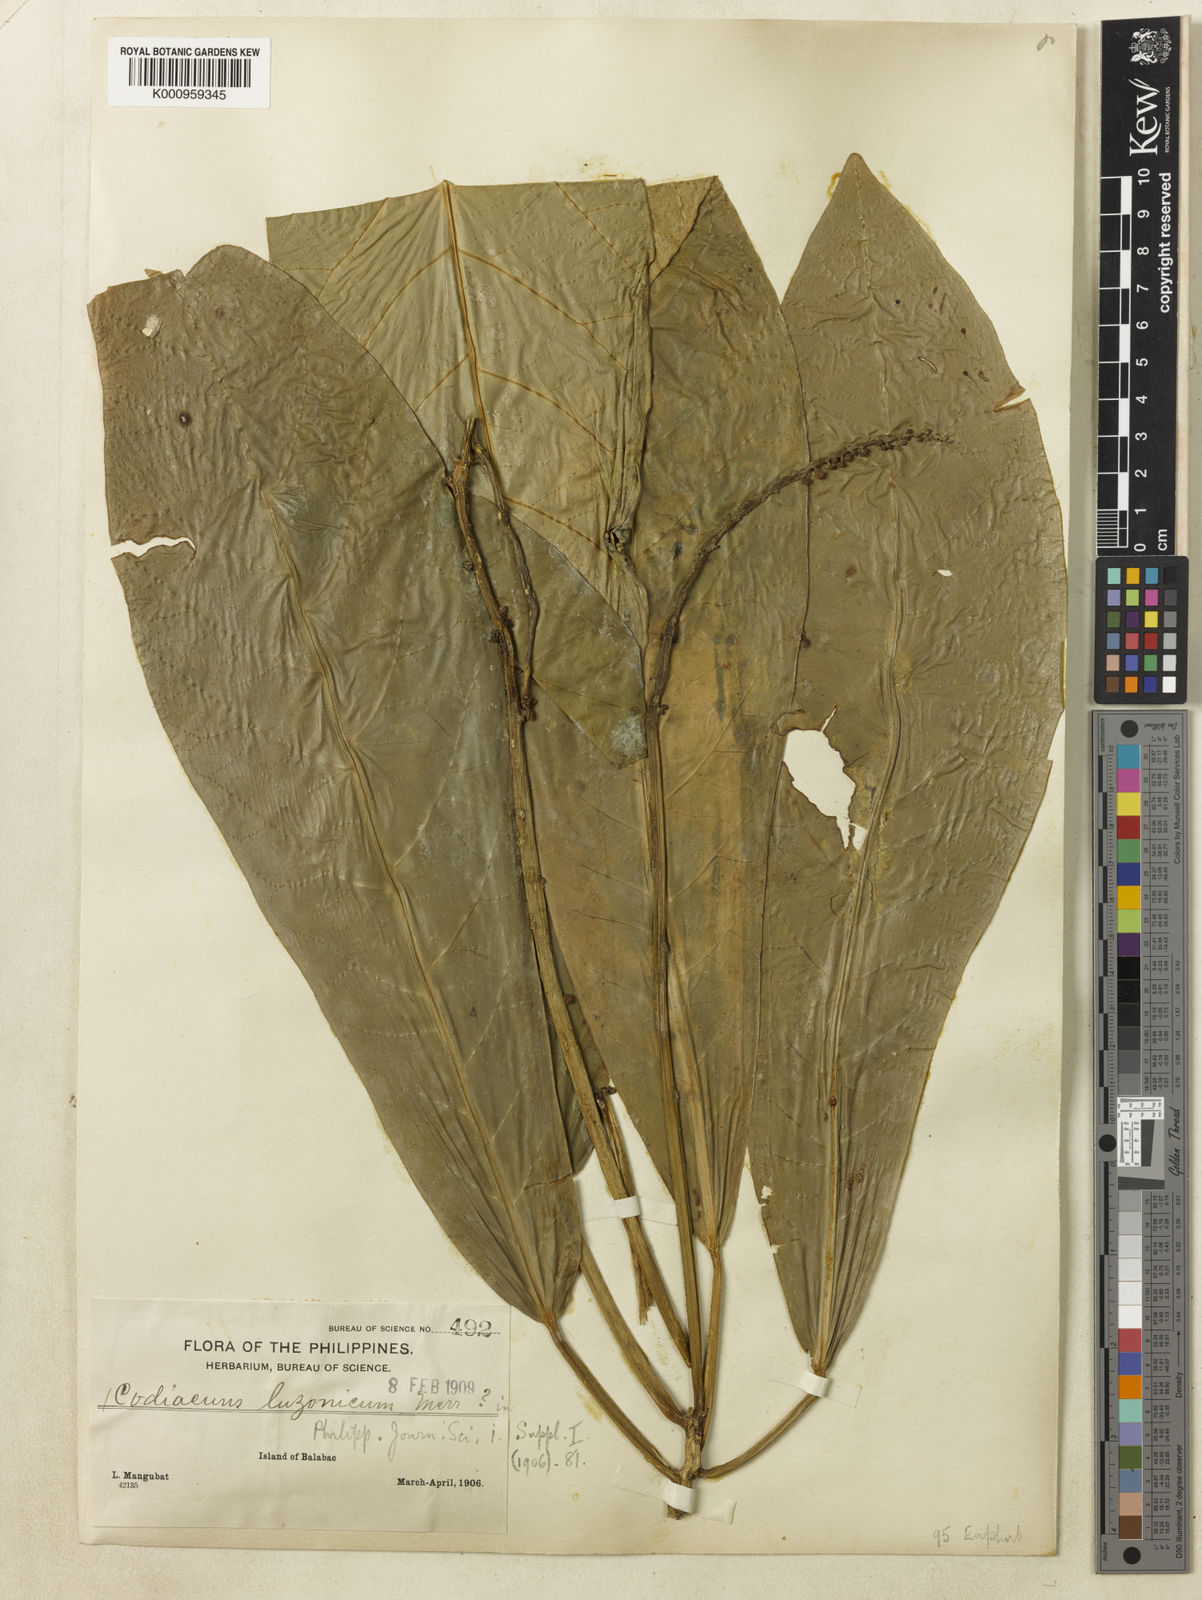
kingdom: Plantae
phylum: Tracheophyta
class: Magnoliopsida
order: Malpighiales
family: Euphorbiaceae
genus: Codiaeum
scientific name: Codiaeum luzonicum
